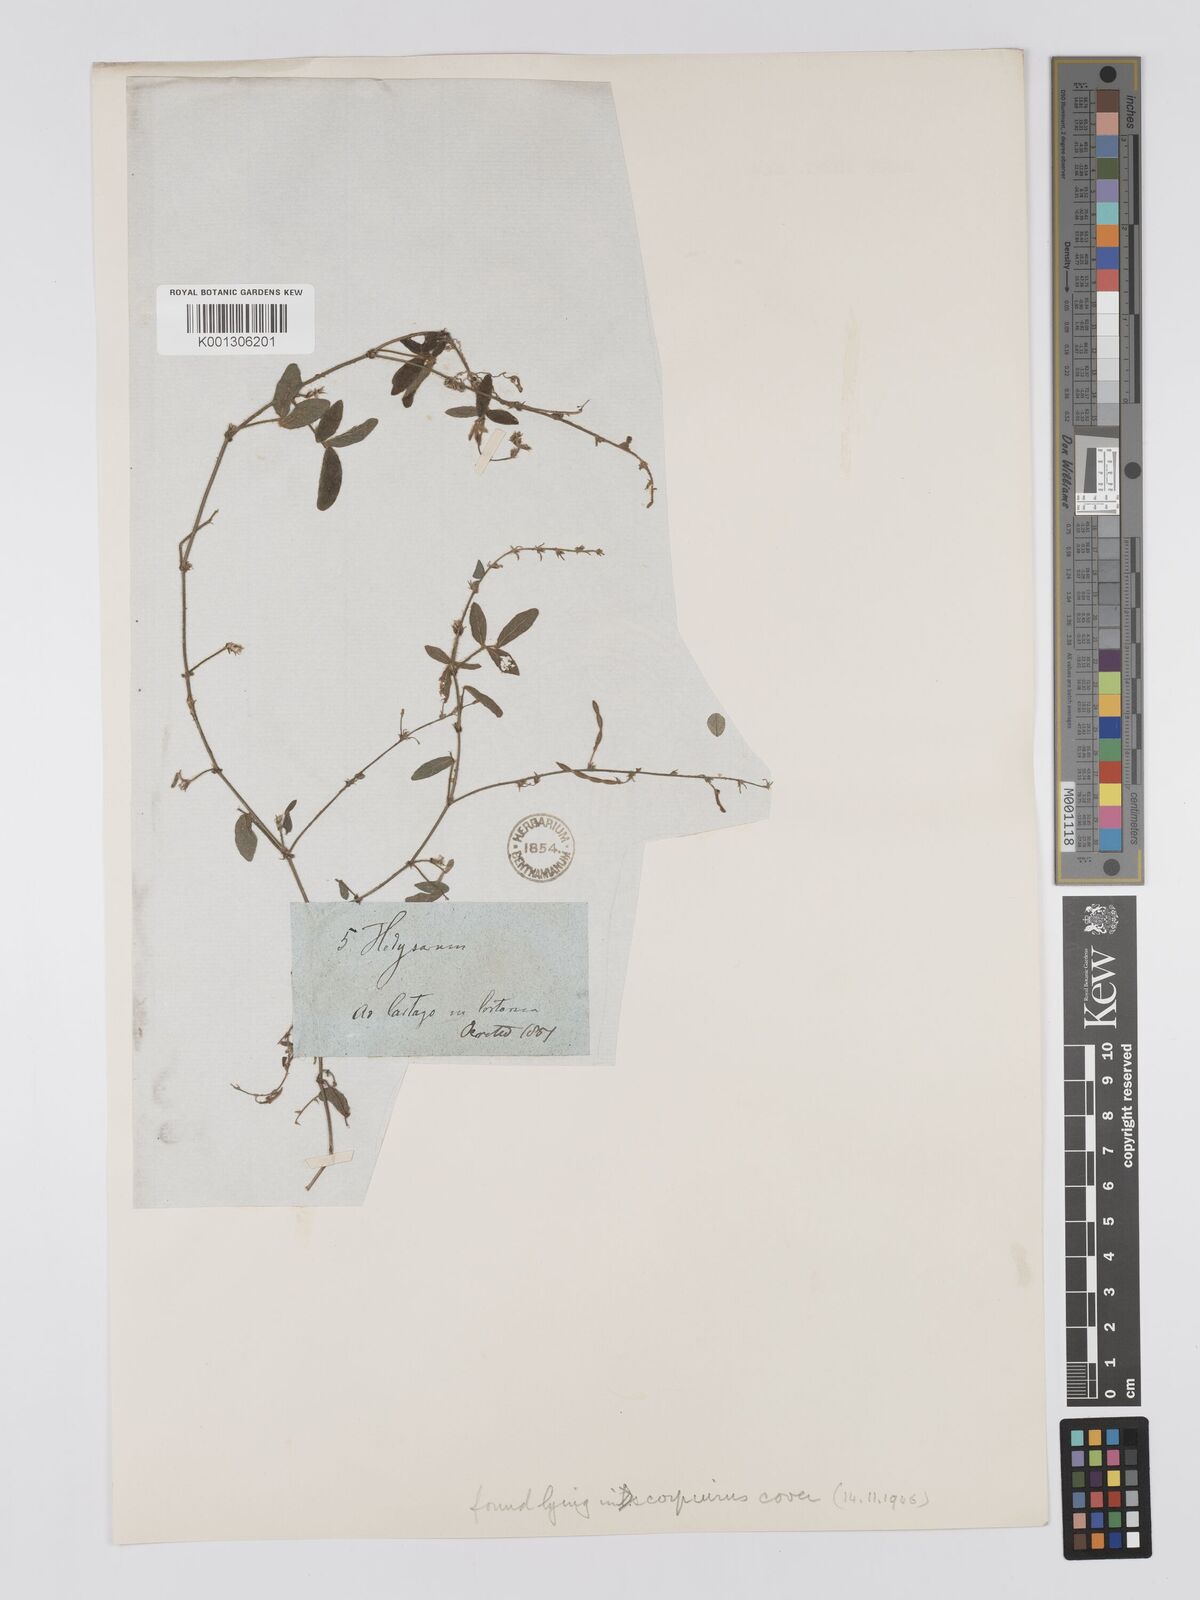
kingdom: Plantae
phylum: Tracheophyta
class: Magnoliopsida
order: Fabales
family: Fabaceae
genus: Desmodium
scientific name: Desmodium scorpiurus
